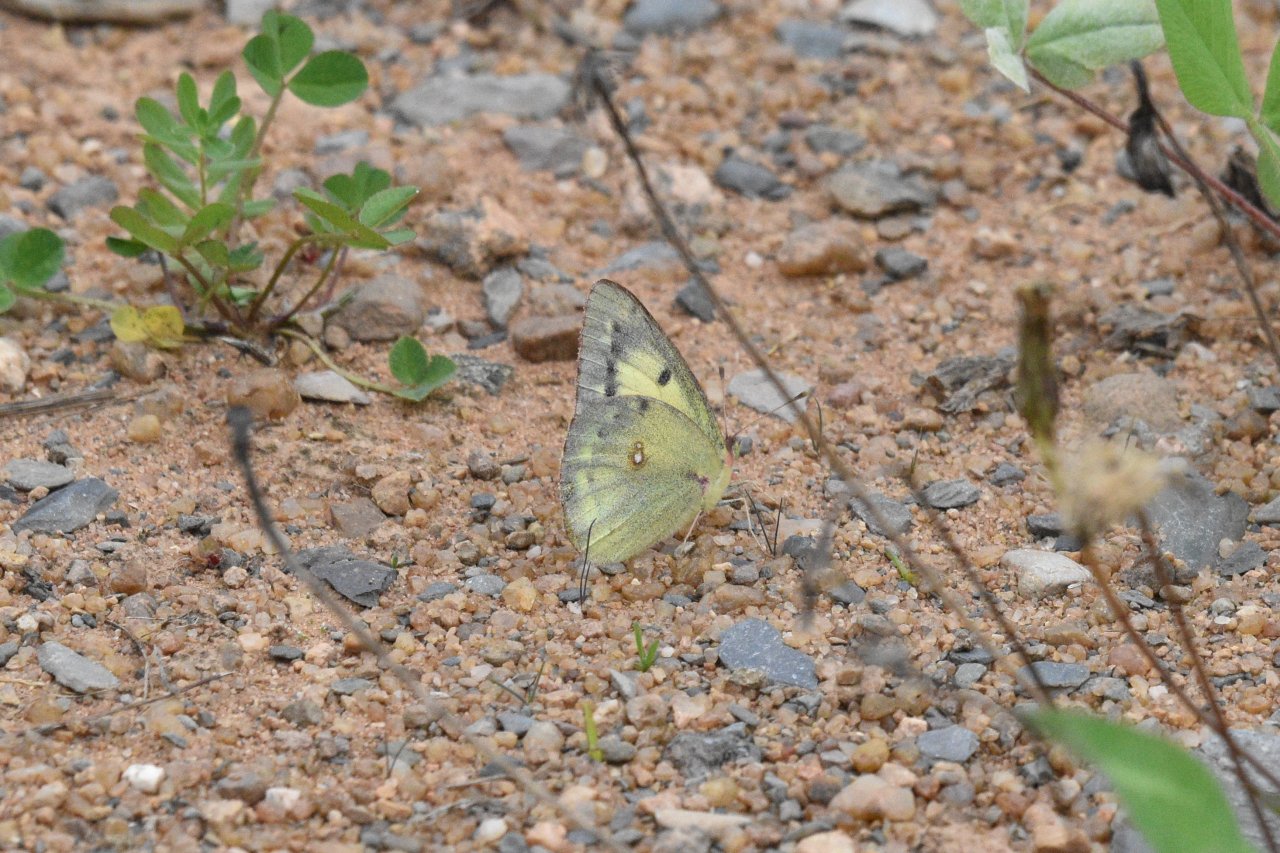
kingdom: Animalia
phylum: Arthropoda
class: Insecta
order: Lepidoptera
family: Pieridae
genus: Colias
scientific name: Colias philodice
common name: Clouded Sulphur
